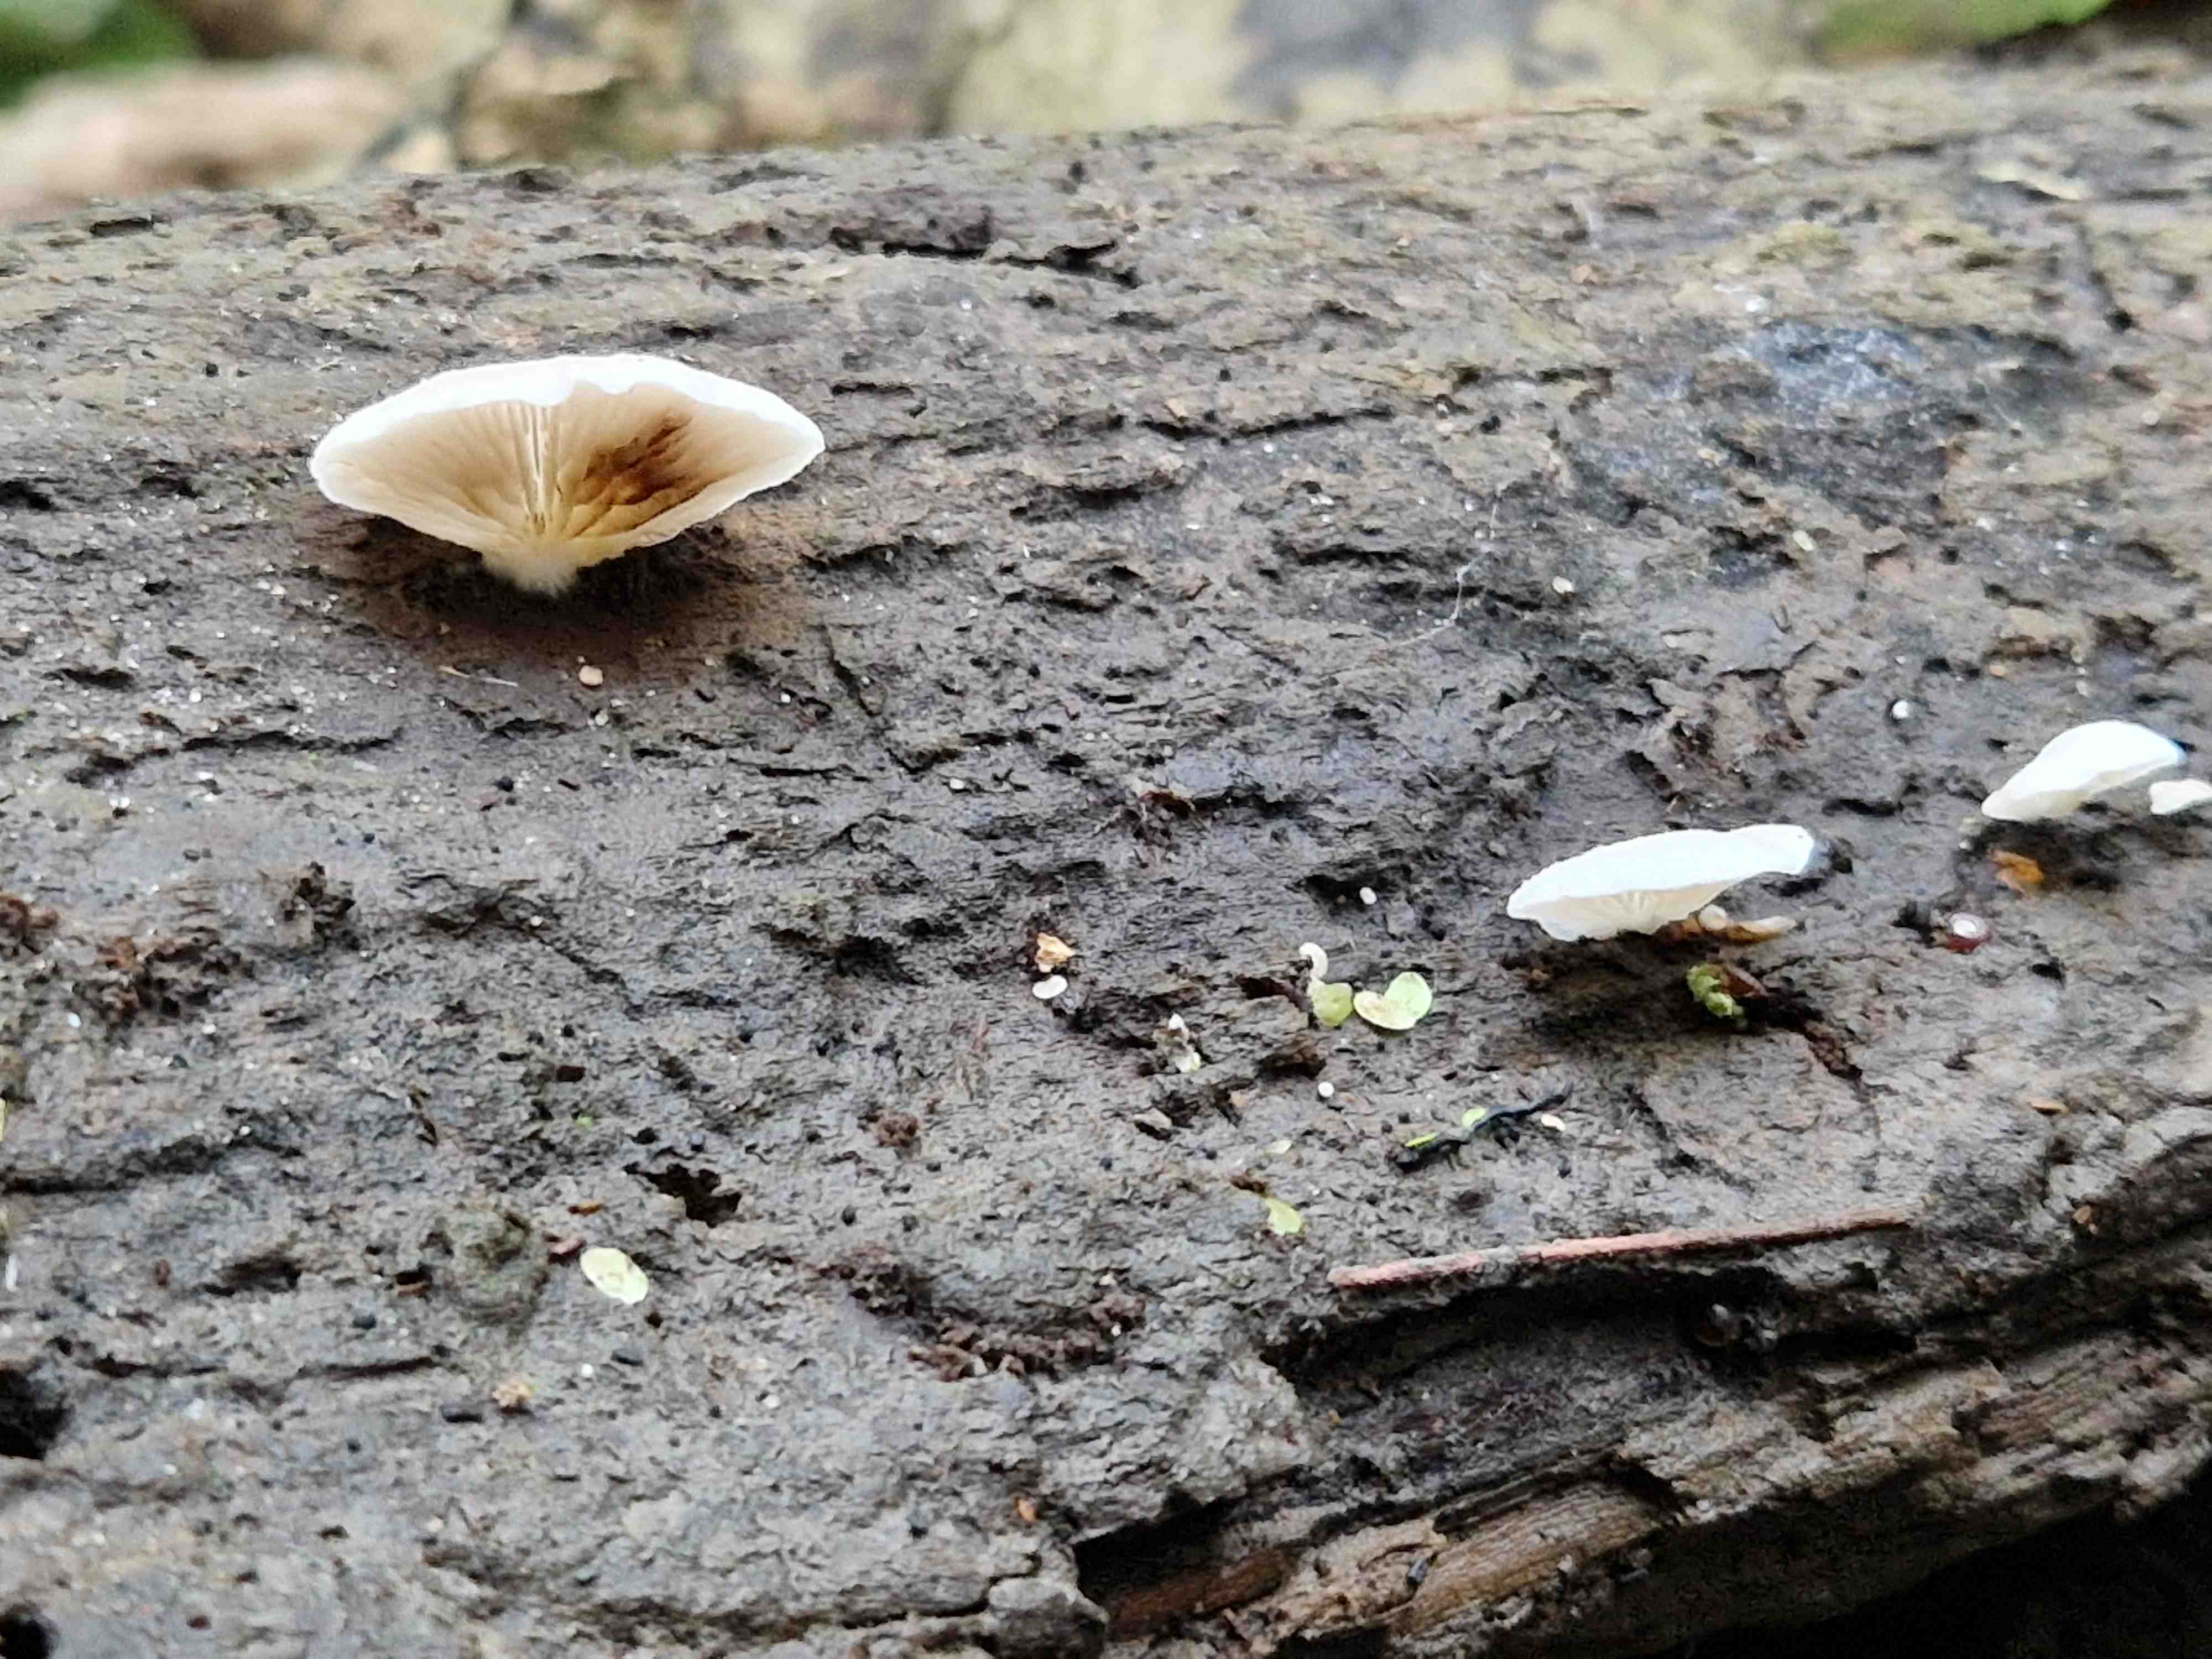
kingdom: Fungi
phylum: Basidiomycota
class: Agaricomycetes
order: Agaricales
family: Crepidotaceae
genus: Crepidotus
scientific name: Crepidotus mollis
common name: blød muslingesvamp
